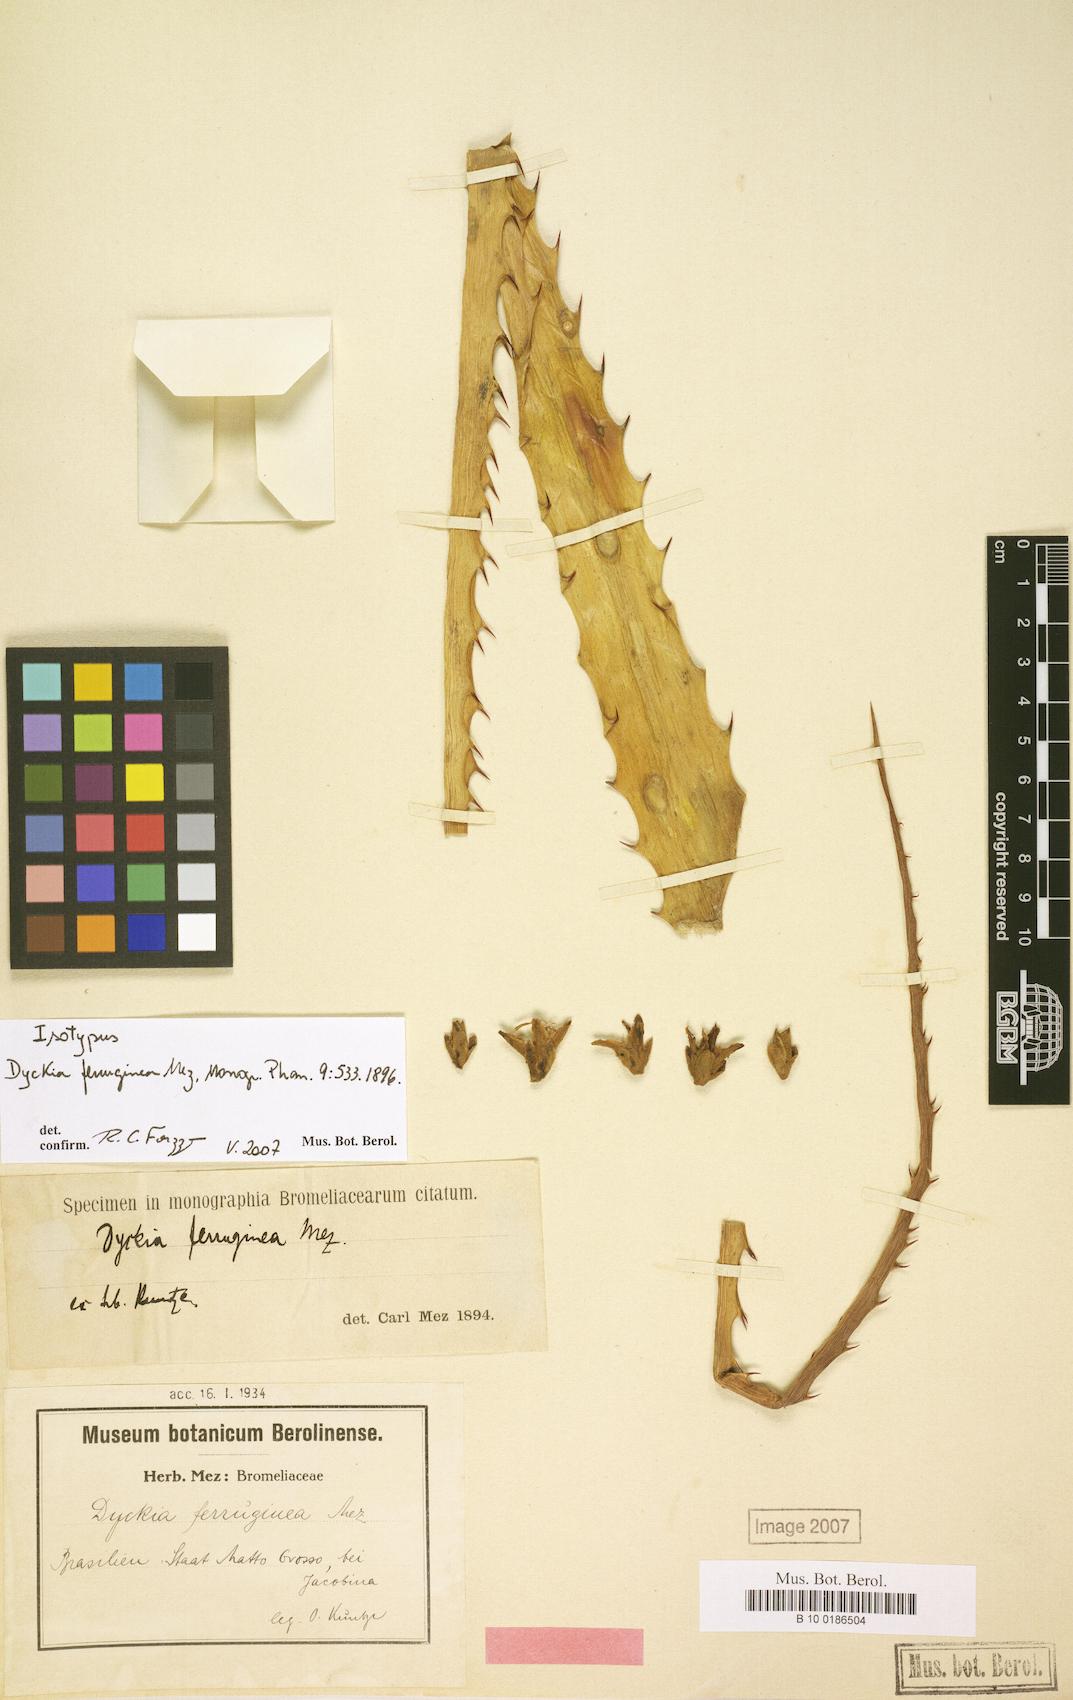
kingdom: Plantae
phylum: Tracheophyta
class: Liliopsida
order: Poales
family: Bromeliaceae
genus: Dyckia
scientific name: Dyckia ferruginea
